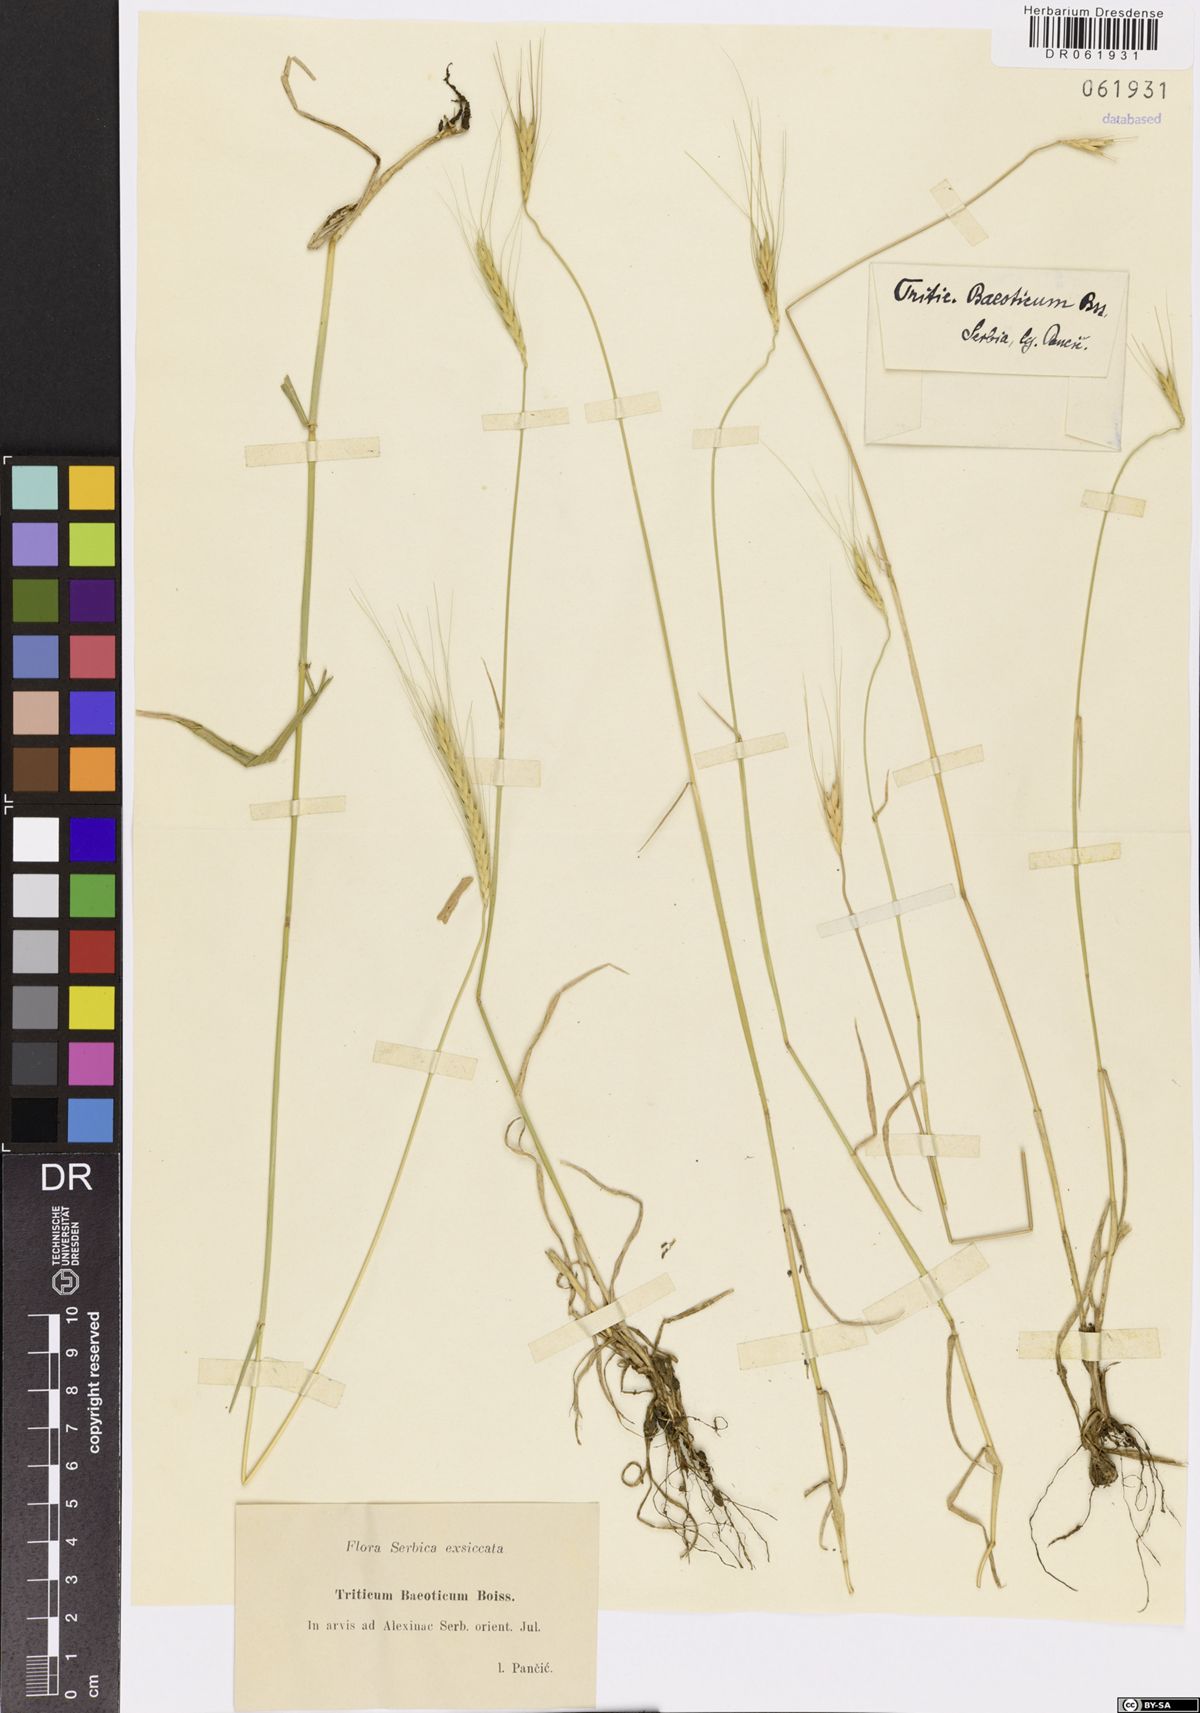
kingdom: Plantae
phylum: Tracheophyta
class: Liliopsida
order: Poales
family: Poaceae
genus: Triticum
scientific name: Triticum monococcum
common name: Einkorn
